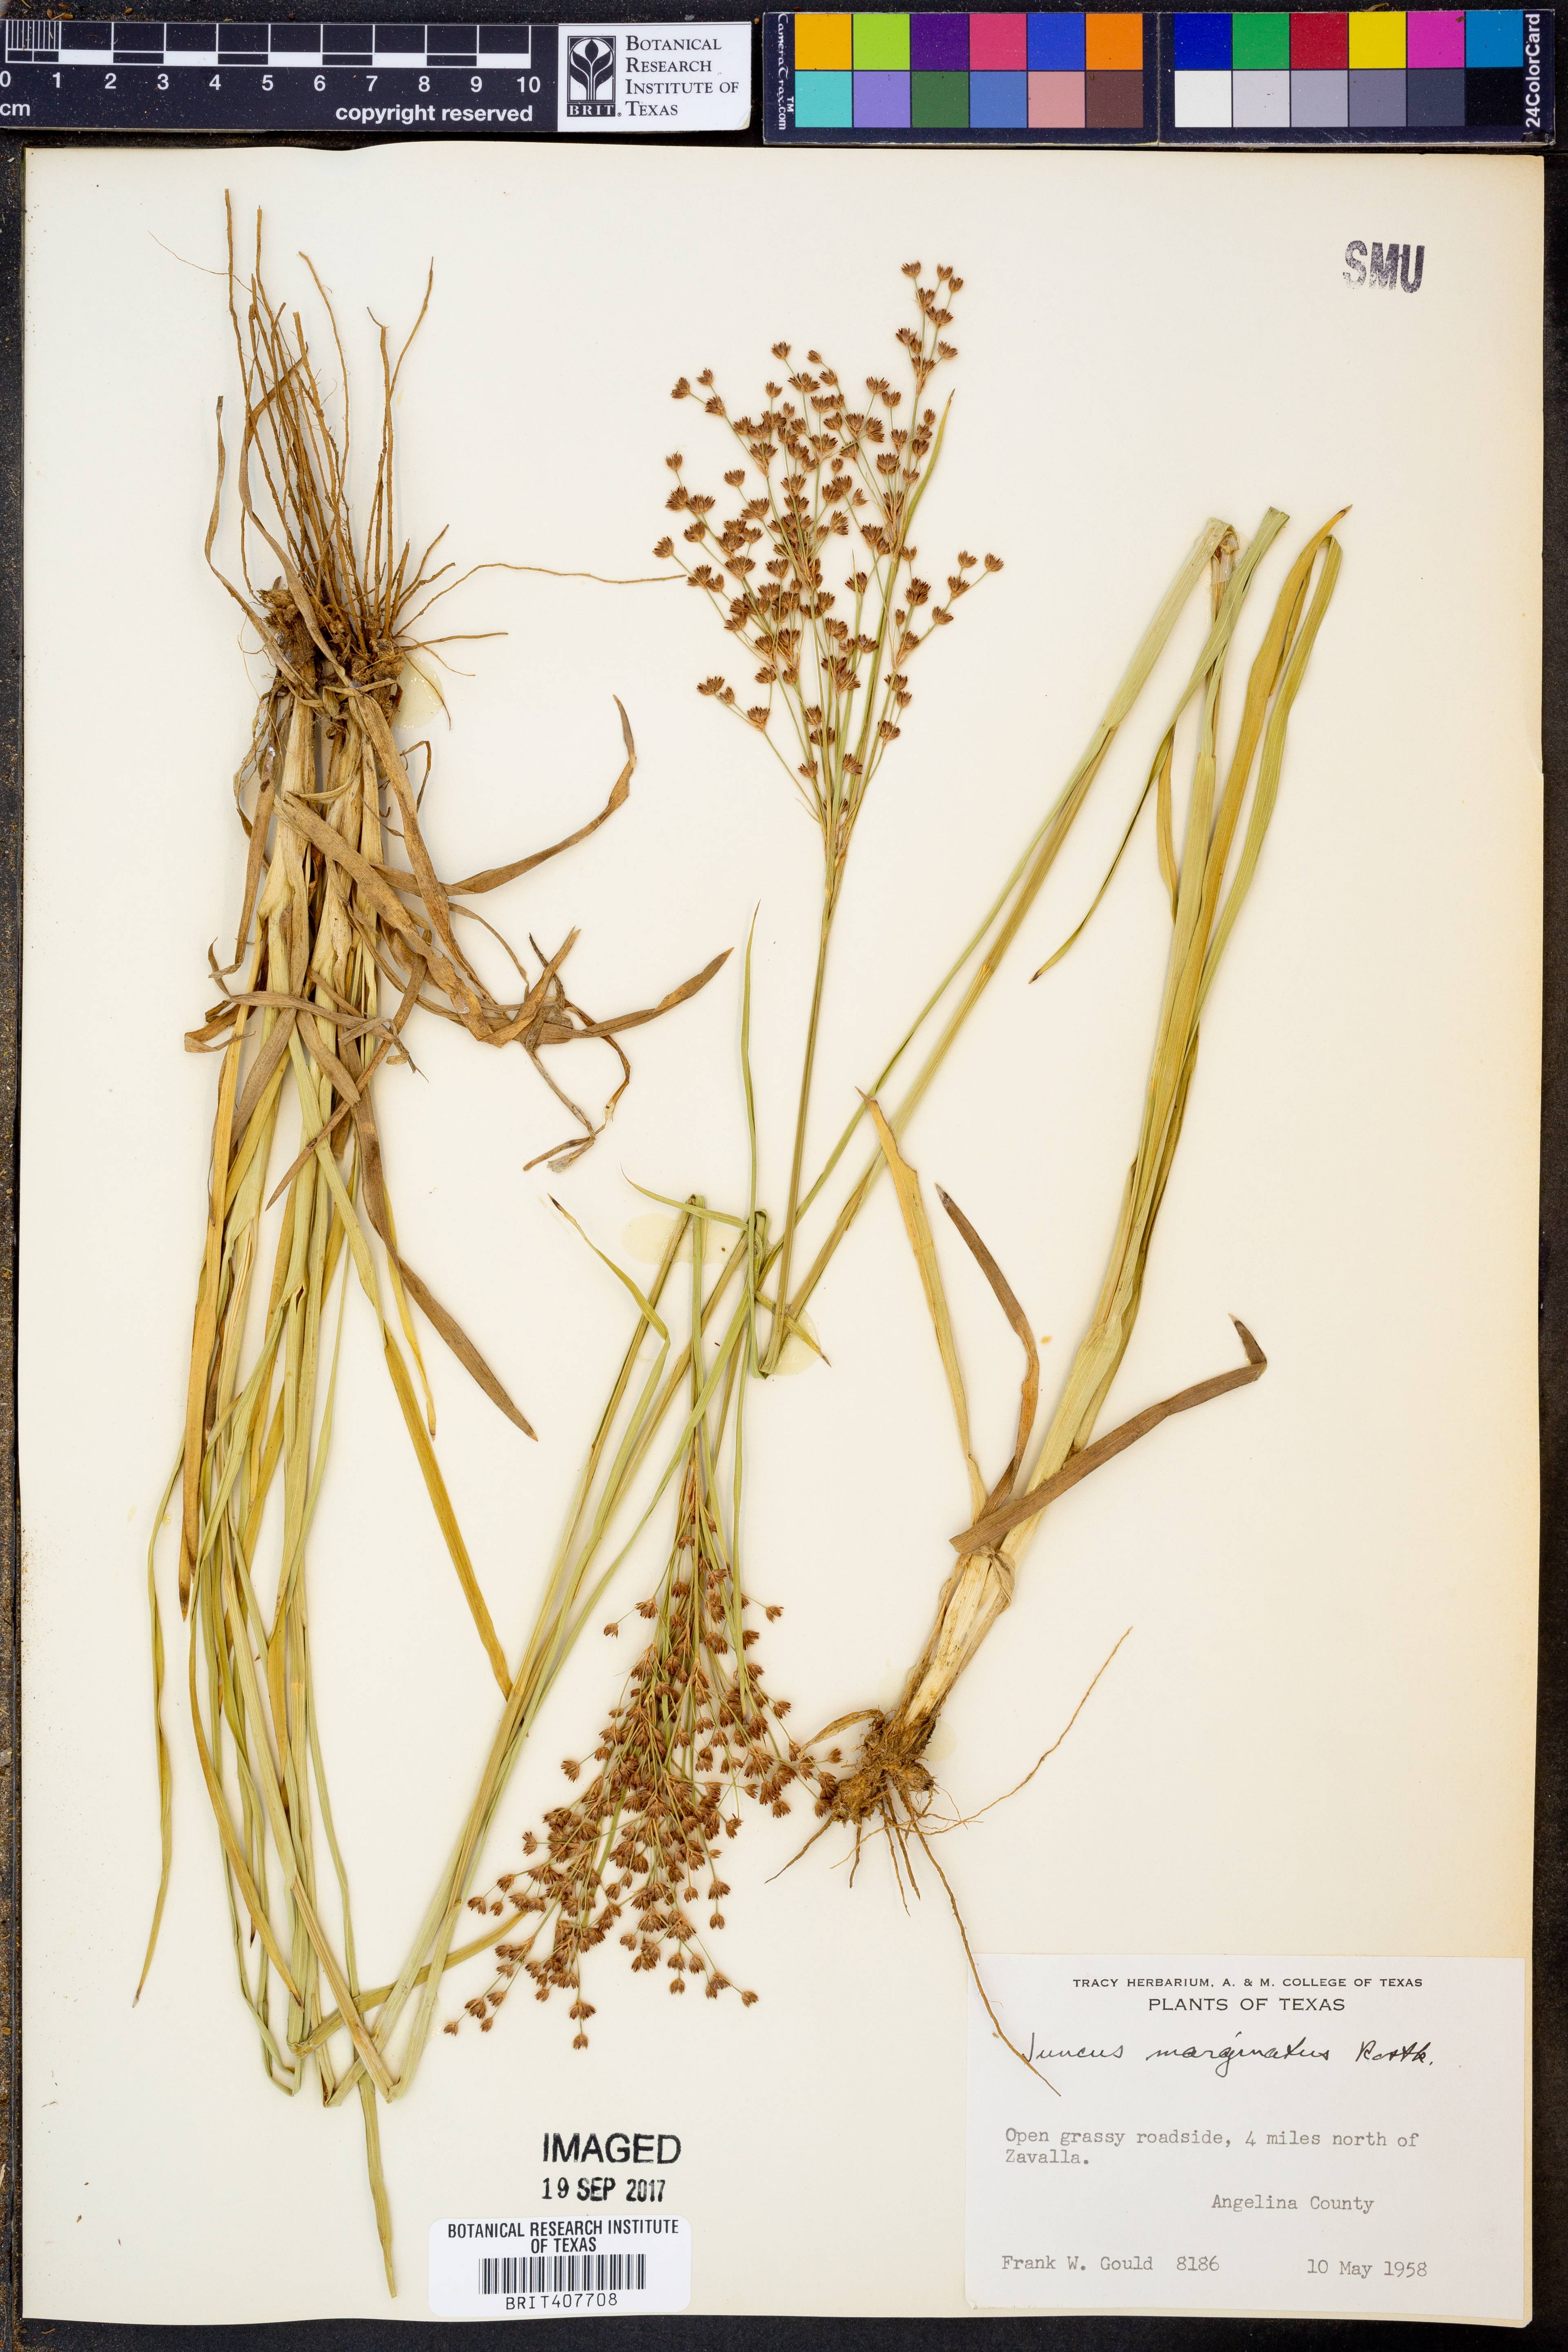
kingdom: Plantae
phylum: Tracheophyta
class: Liliopsida
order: Poales
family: Juncaceae
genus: Juncus
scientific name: Juncus marginatus
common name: Grass-leaf rush
